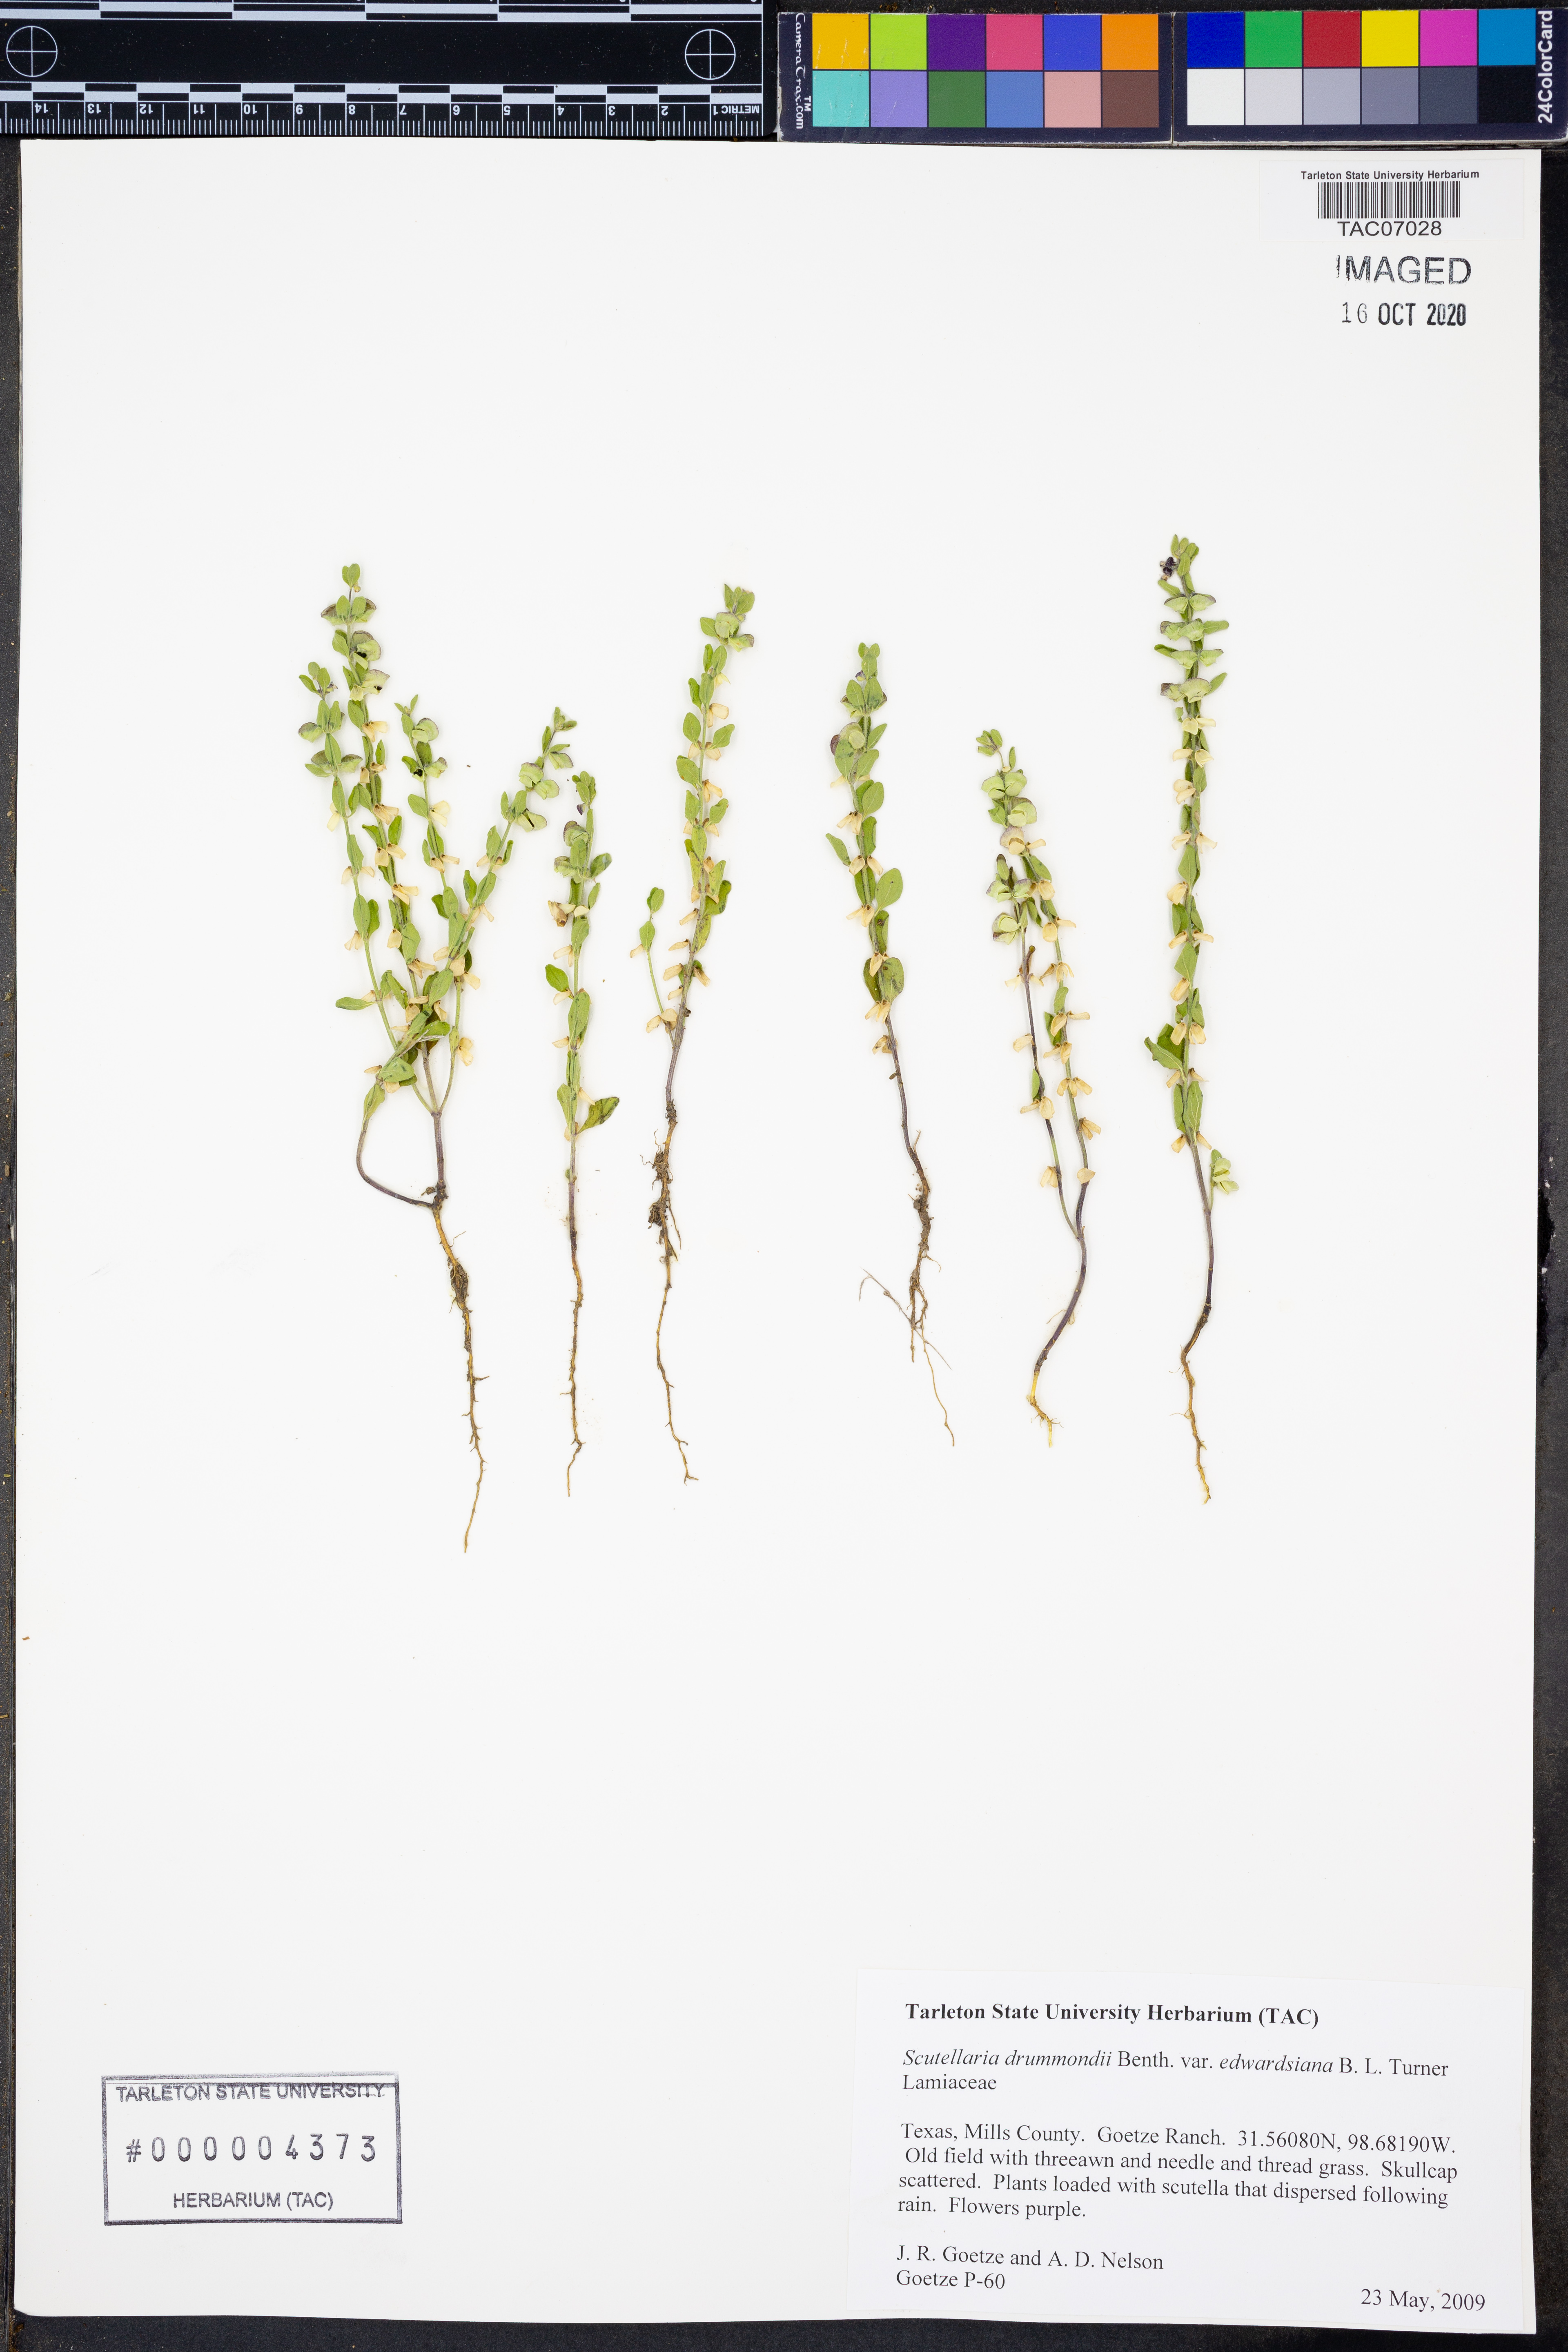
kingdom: Plantae
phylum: Tracheophyta
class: Magnoliopsida
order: Lamiales
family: Lamiaceae
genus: Scutellaria
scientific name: Scutellaria drummondii
